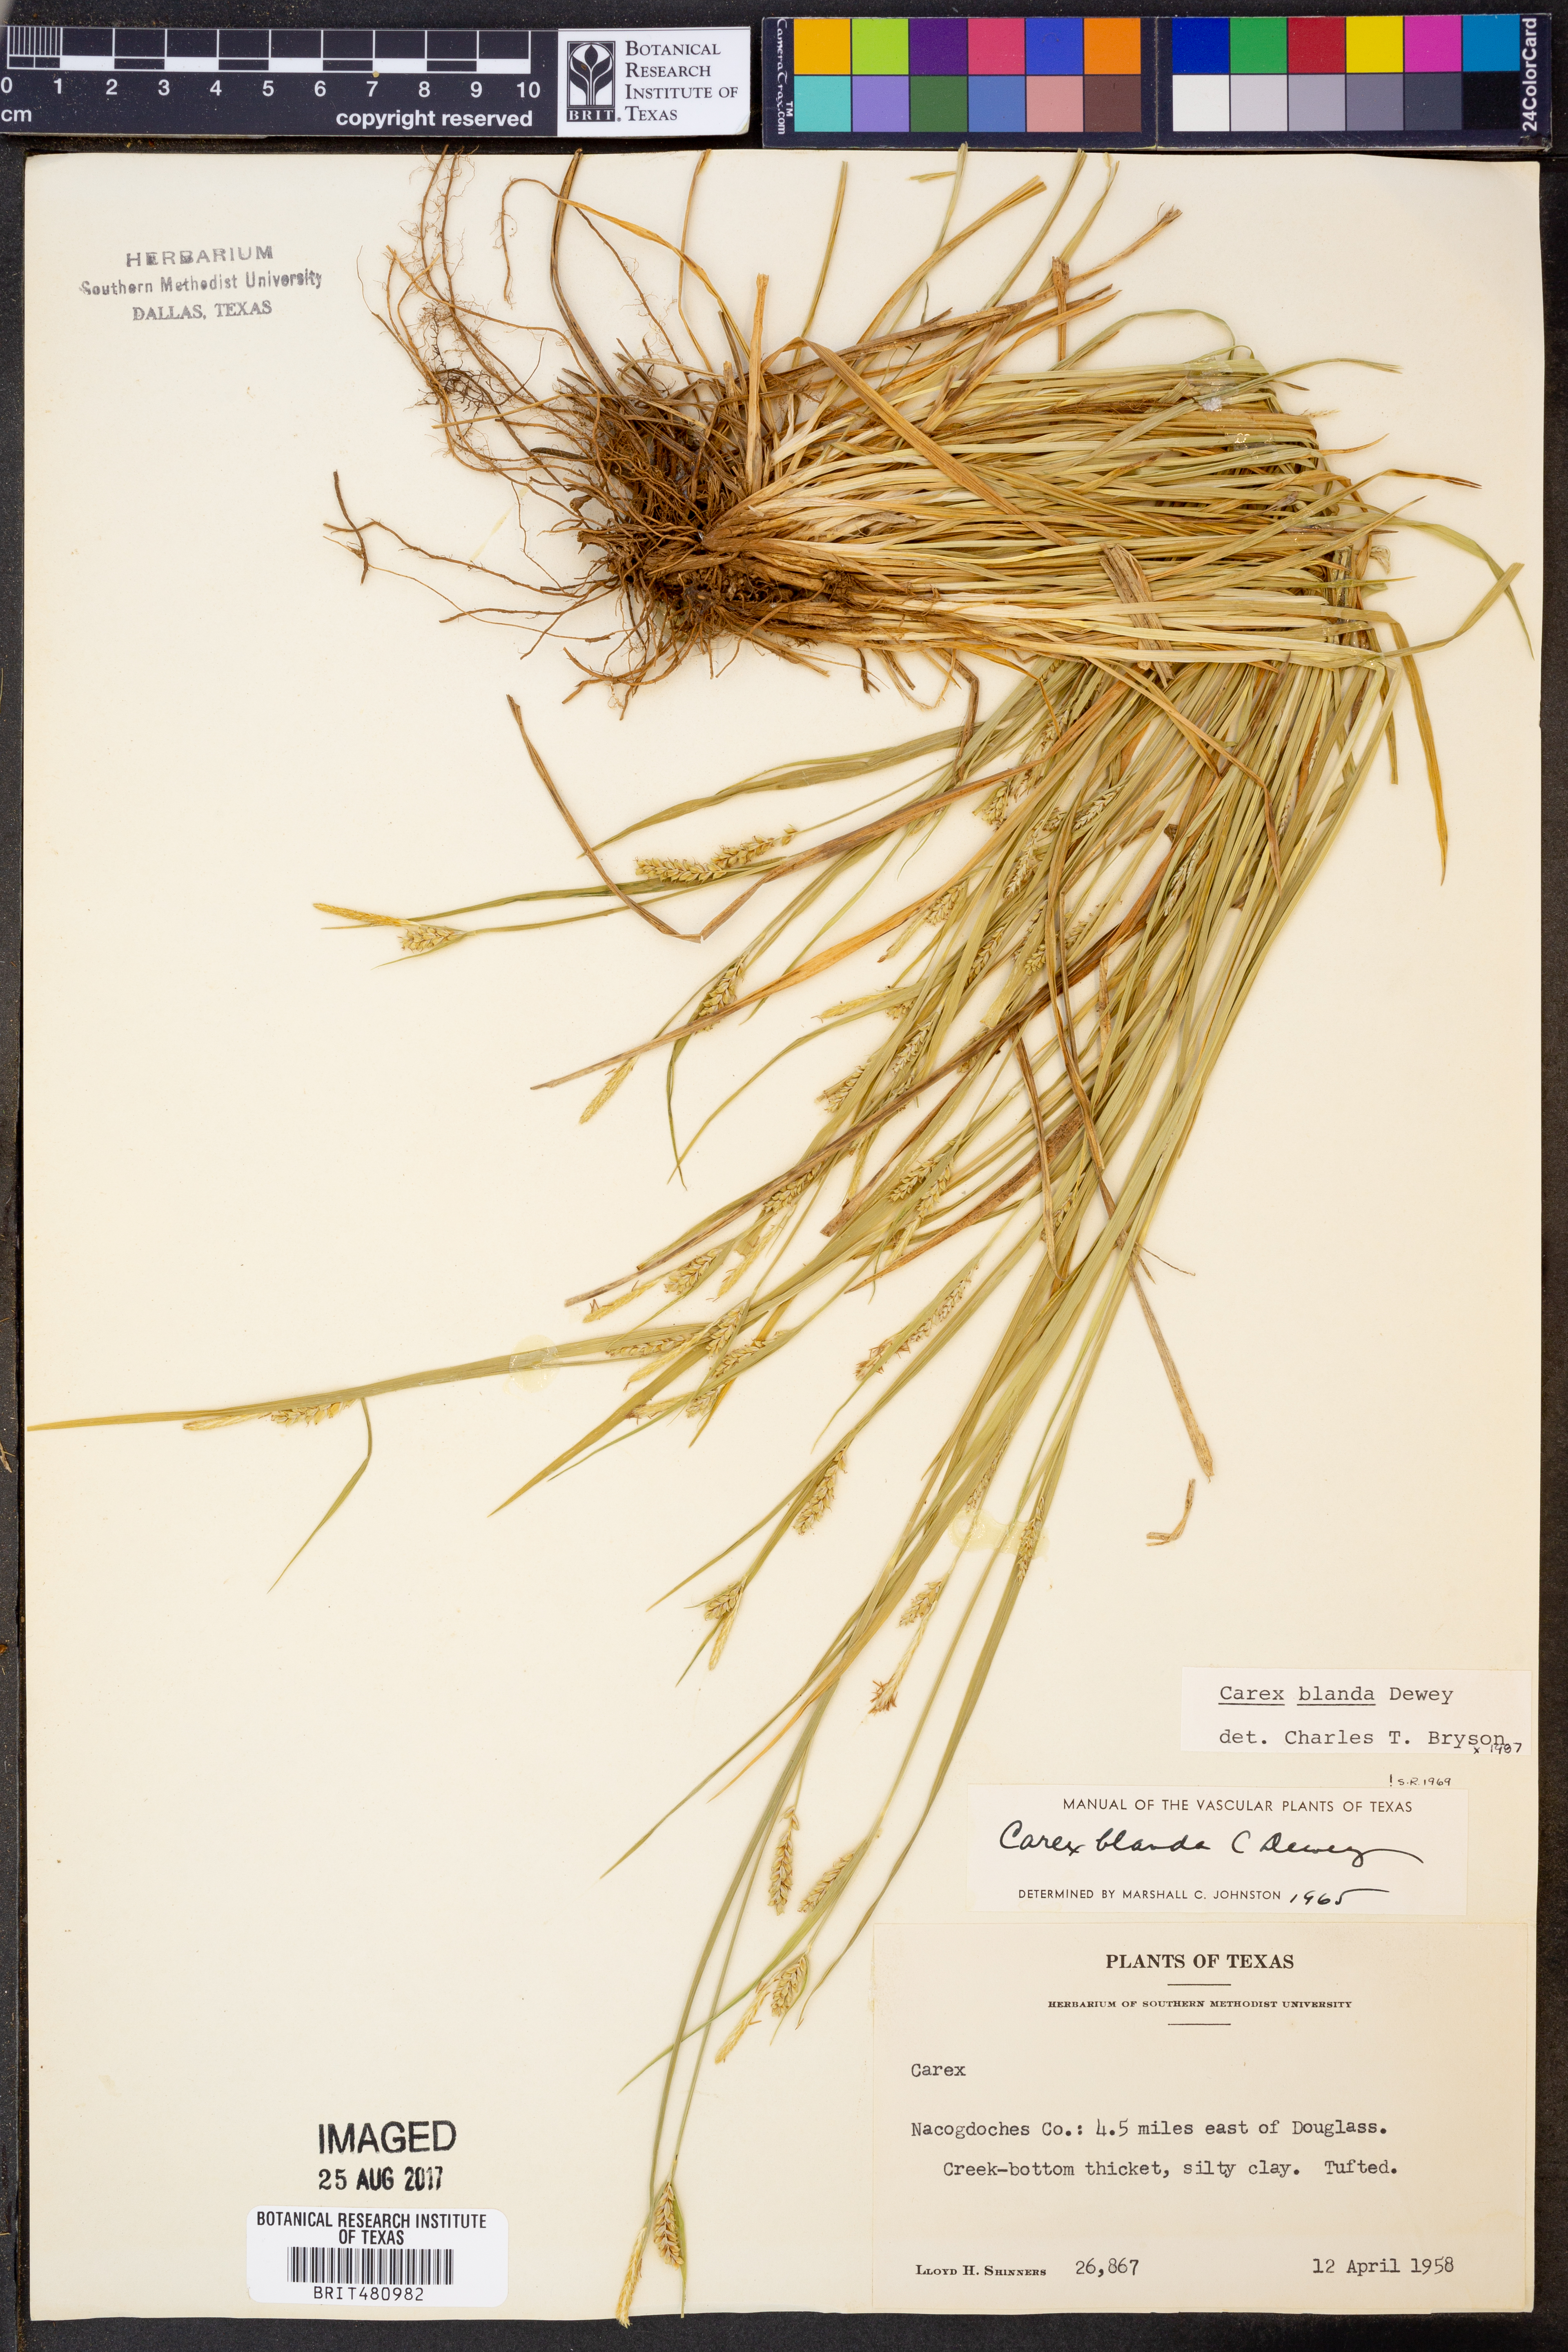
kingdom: Plantae
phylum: Tracheophyta
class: Liliopsida
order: Poales
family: Cyperaceae
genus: Carex
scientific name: Carex blanda
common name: Bland sedge
